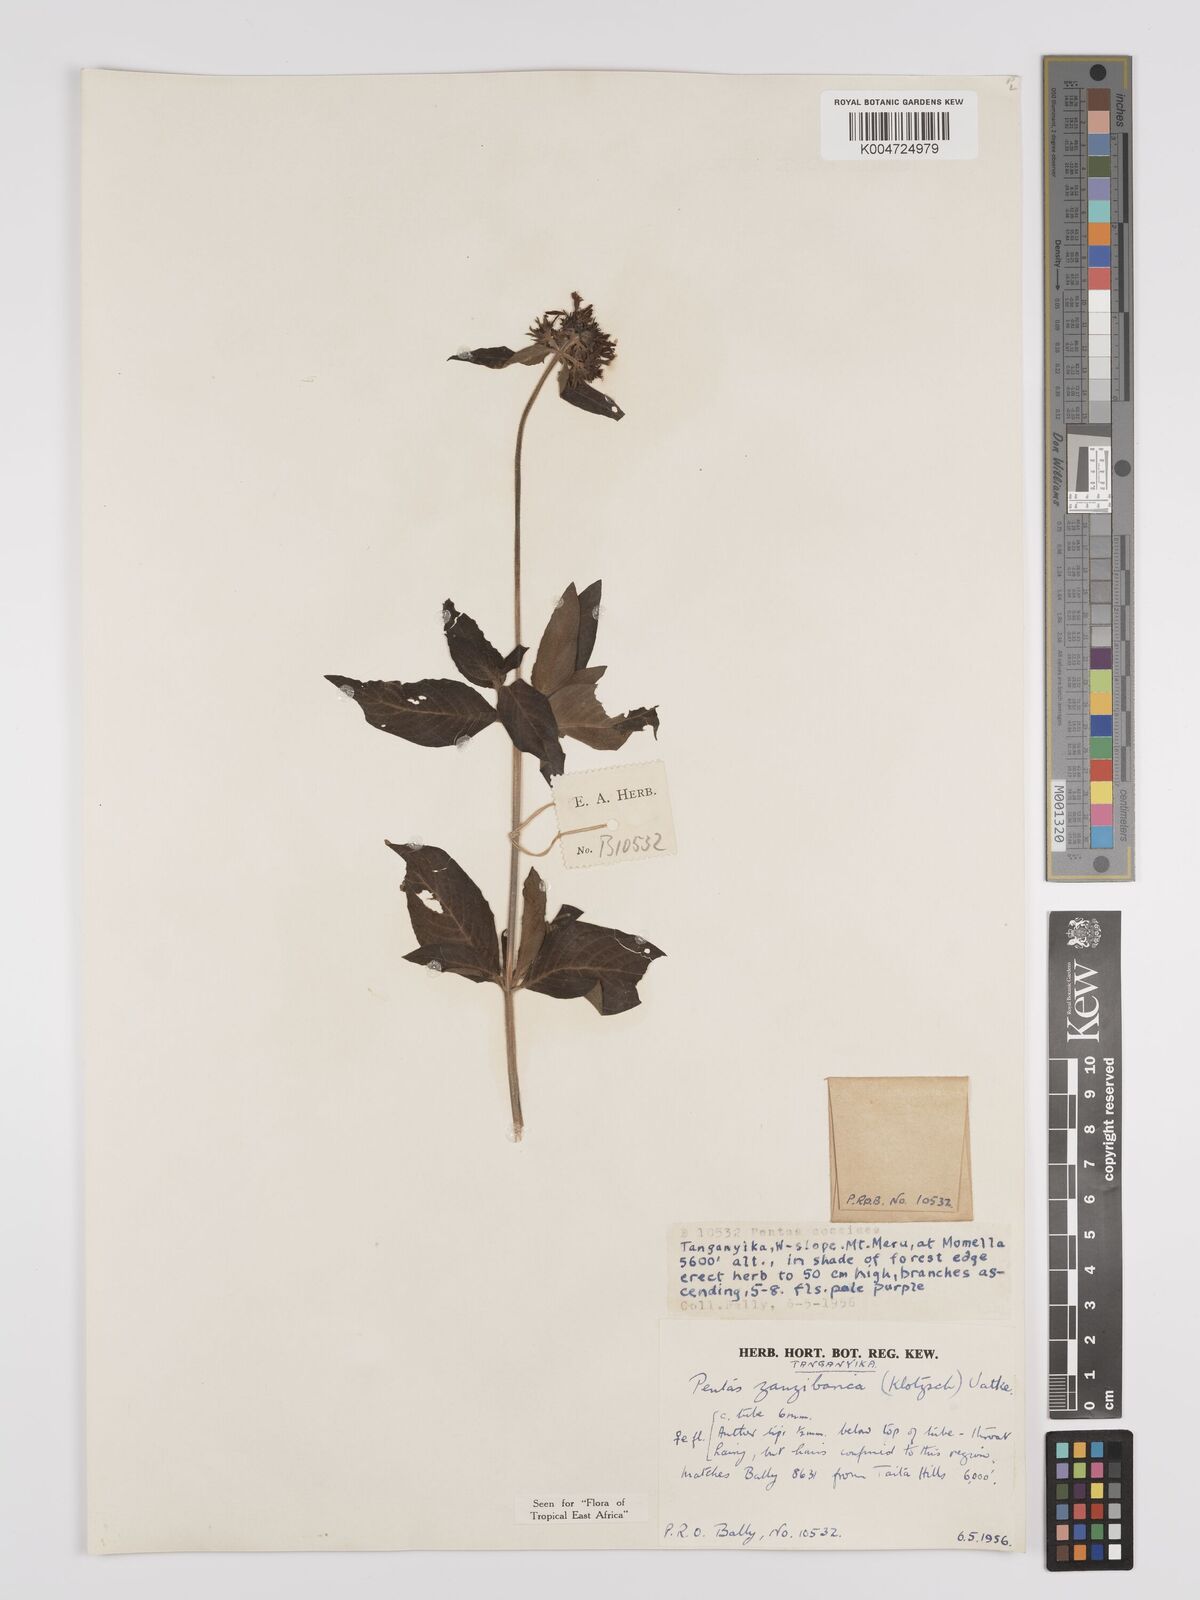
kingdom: Plantae
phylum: Tracheophyta
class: Magnoliopsida
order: Gentianales
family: Rubiaceae
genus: Pentas
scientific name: Pentas zanzibarica
